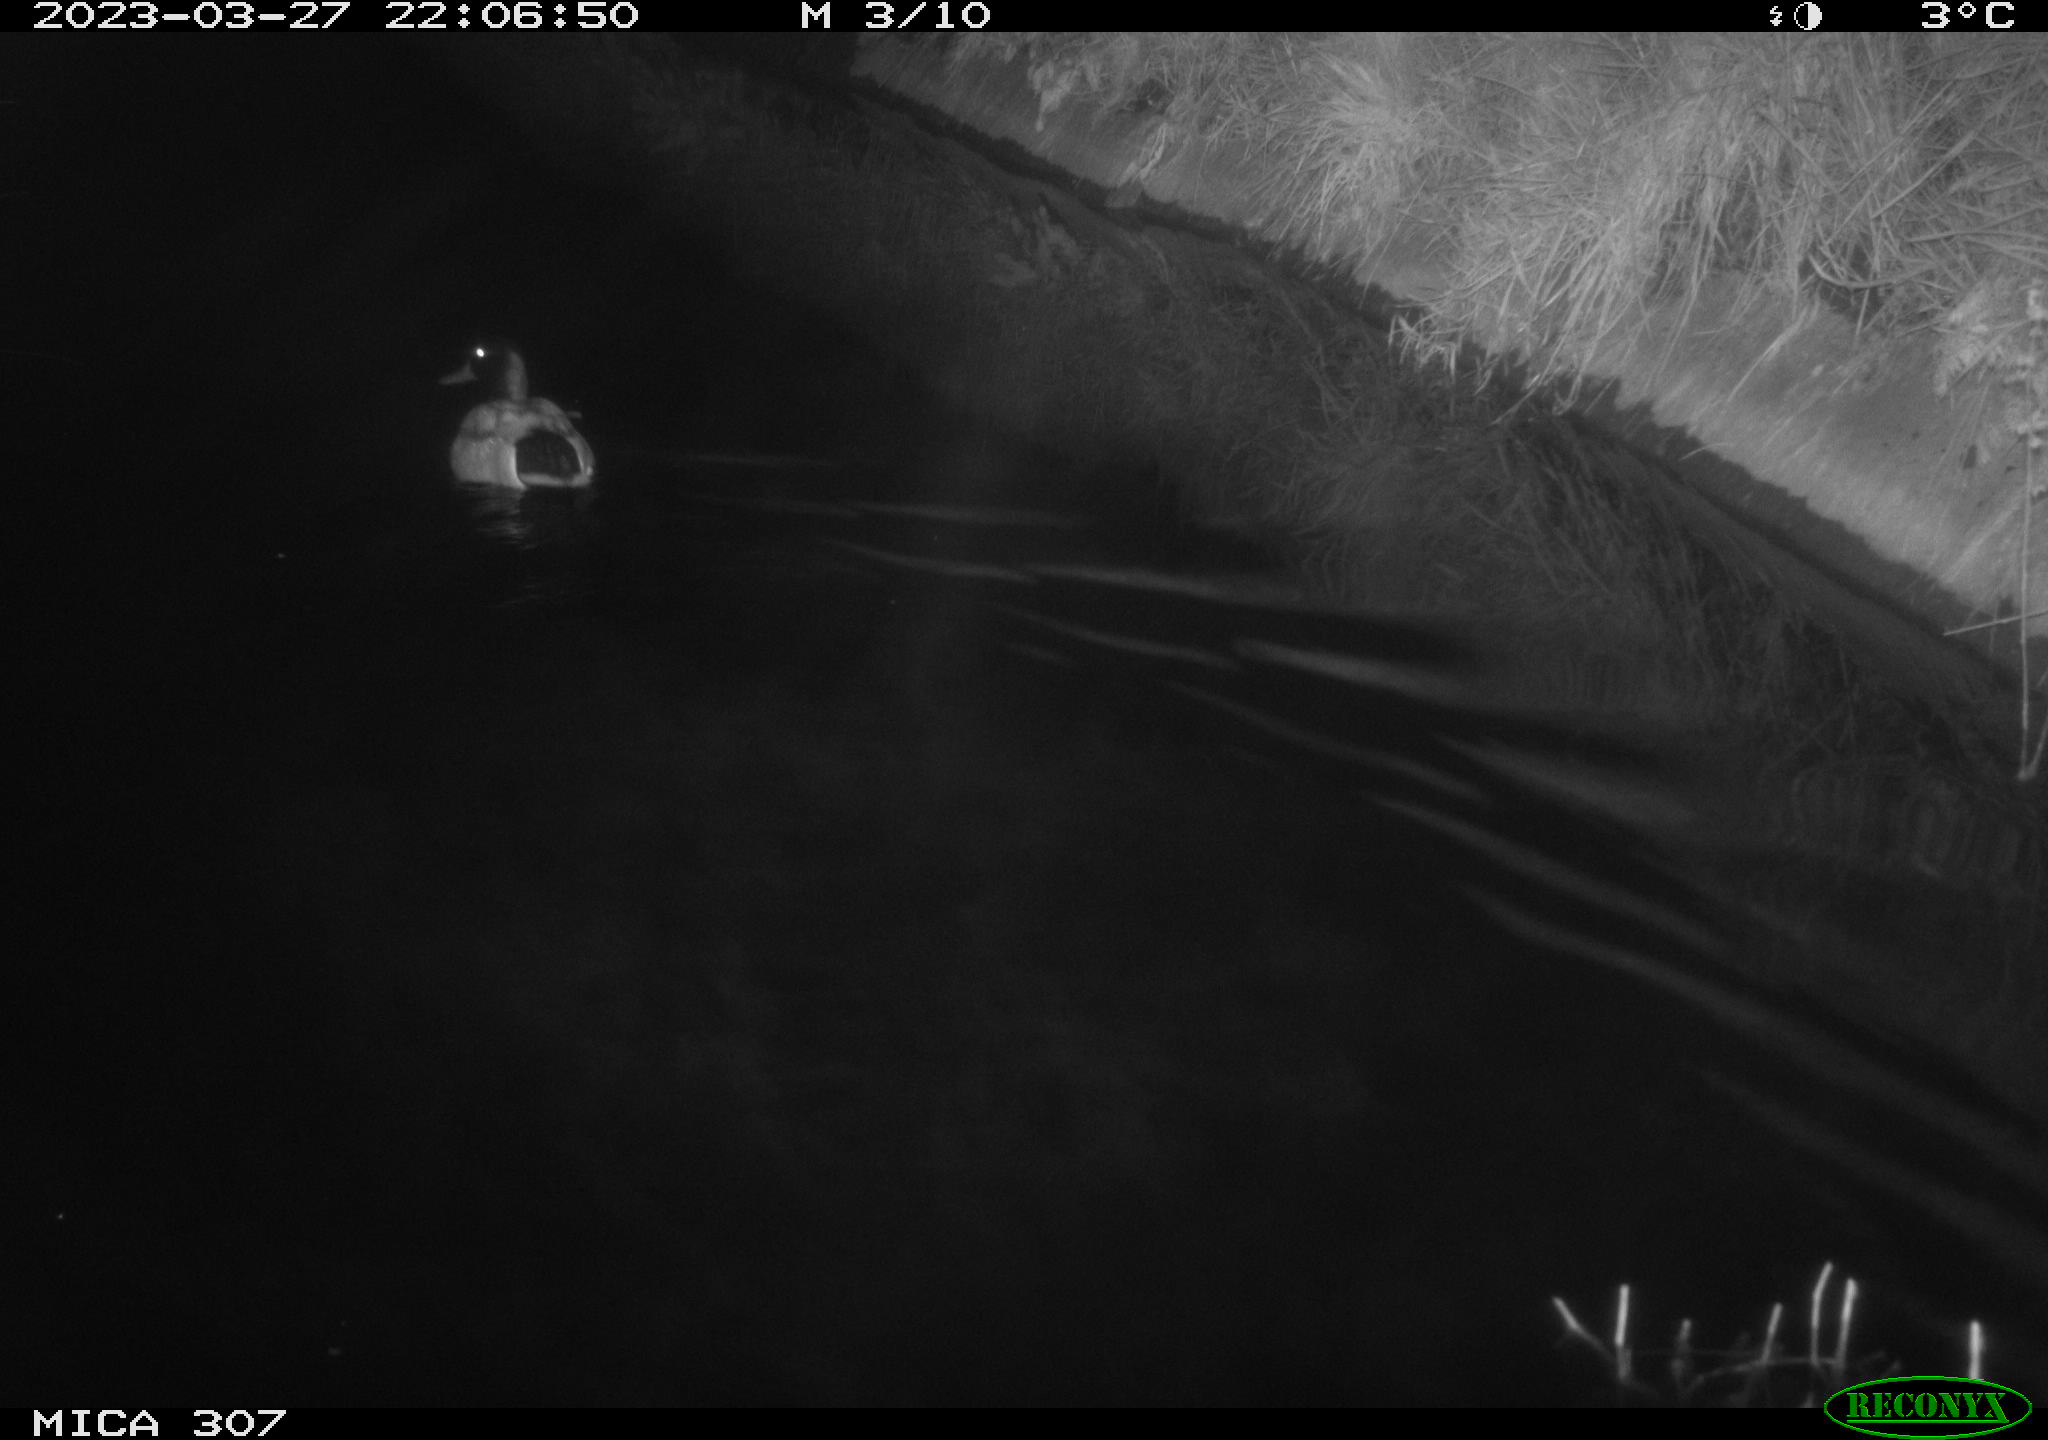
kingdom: Animalia
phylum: Chordata
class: Aves
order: Anseriformes
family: Anatidae
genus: Anas
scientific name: Anas
